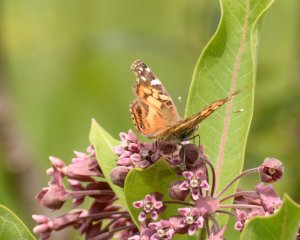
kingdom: Animalia
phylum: Arthropoda
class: Insecta
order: Lepidoptera
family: Nymphalidae
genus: Vanessa
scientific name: Vanessa virginiensis
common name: American Lady
